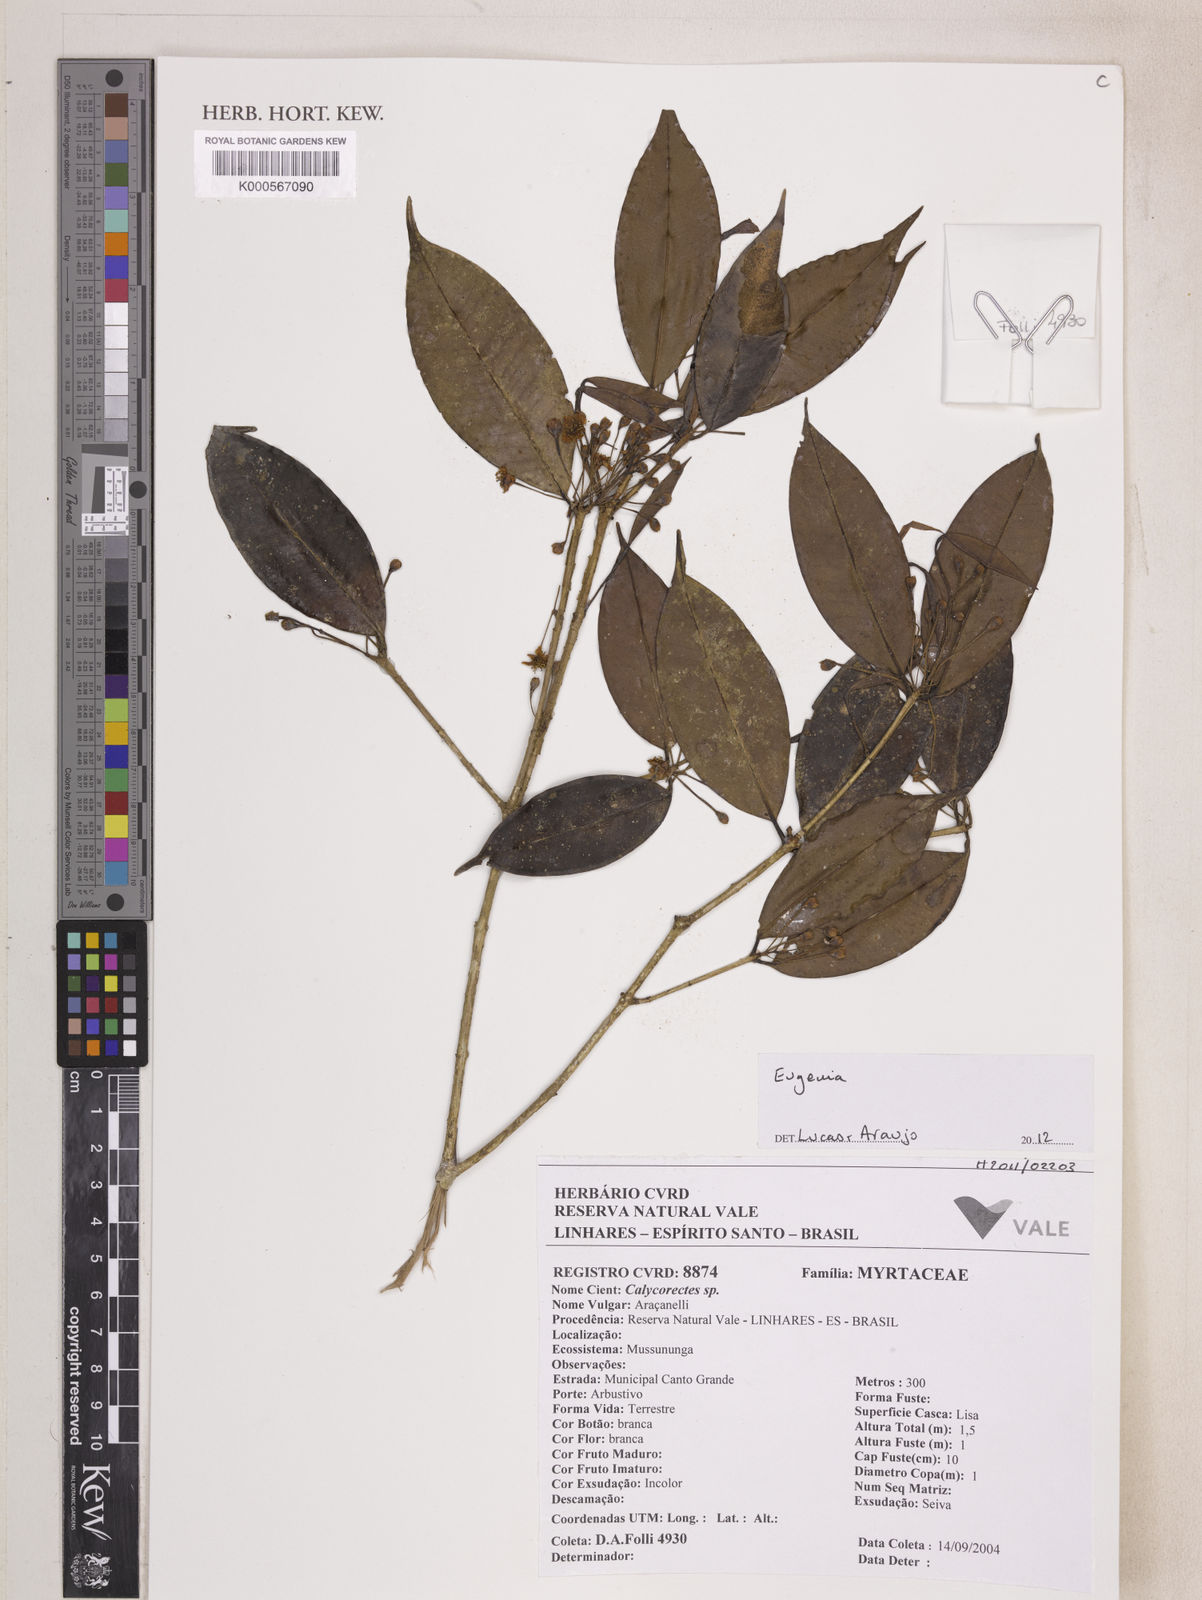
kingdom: Plantae
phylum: Tracheophyta
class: Magnoliopsida
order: Myrtales
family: Myrtaceae
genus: Eugenia
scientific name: Eugenia zuccarinii
